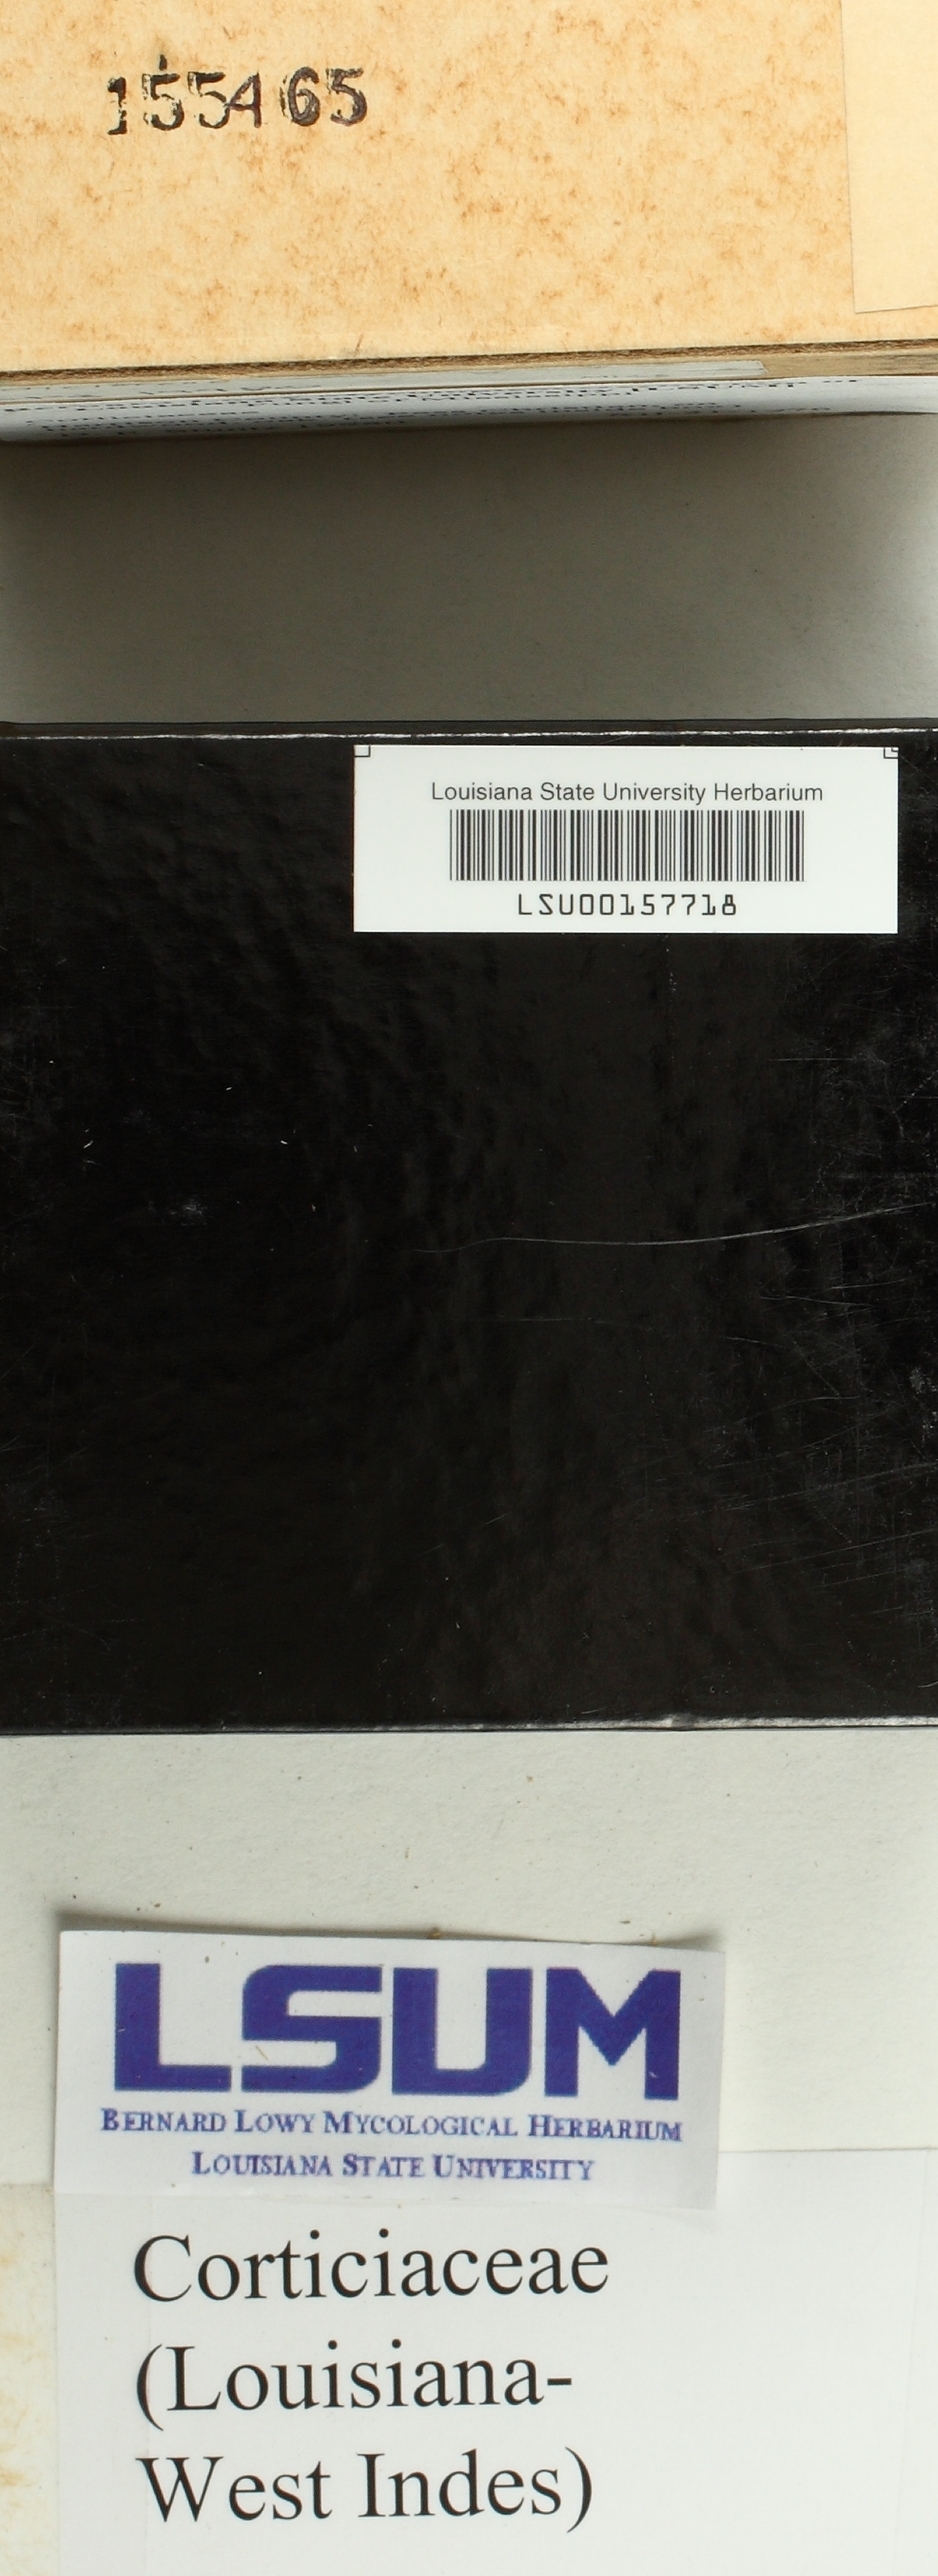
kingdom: Fungi
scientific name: Fungi
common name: Fungi
